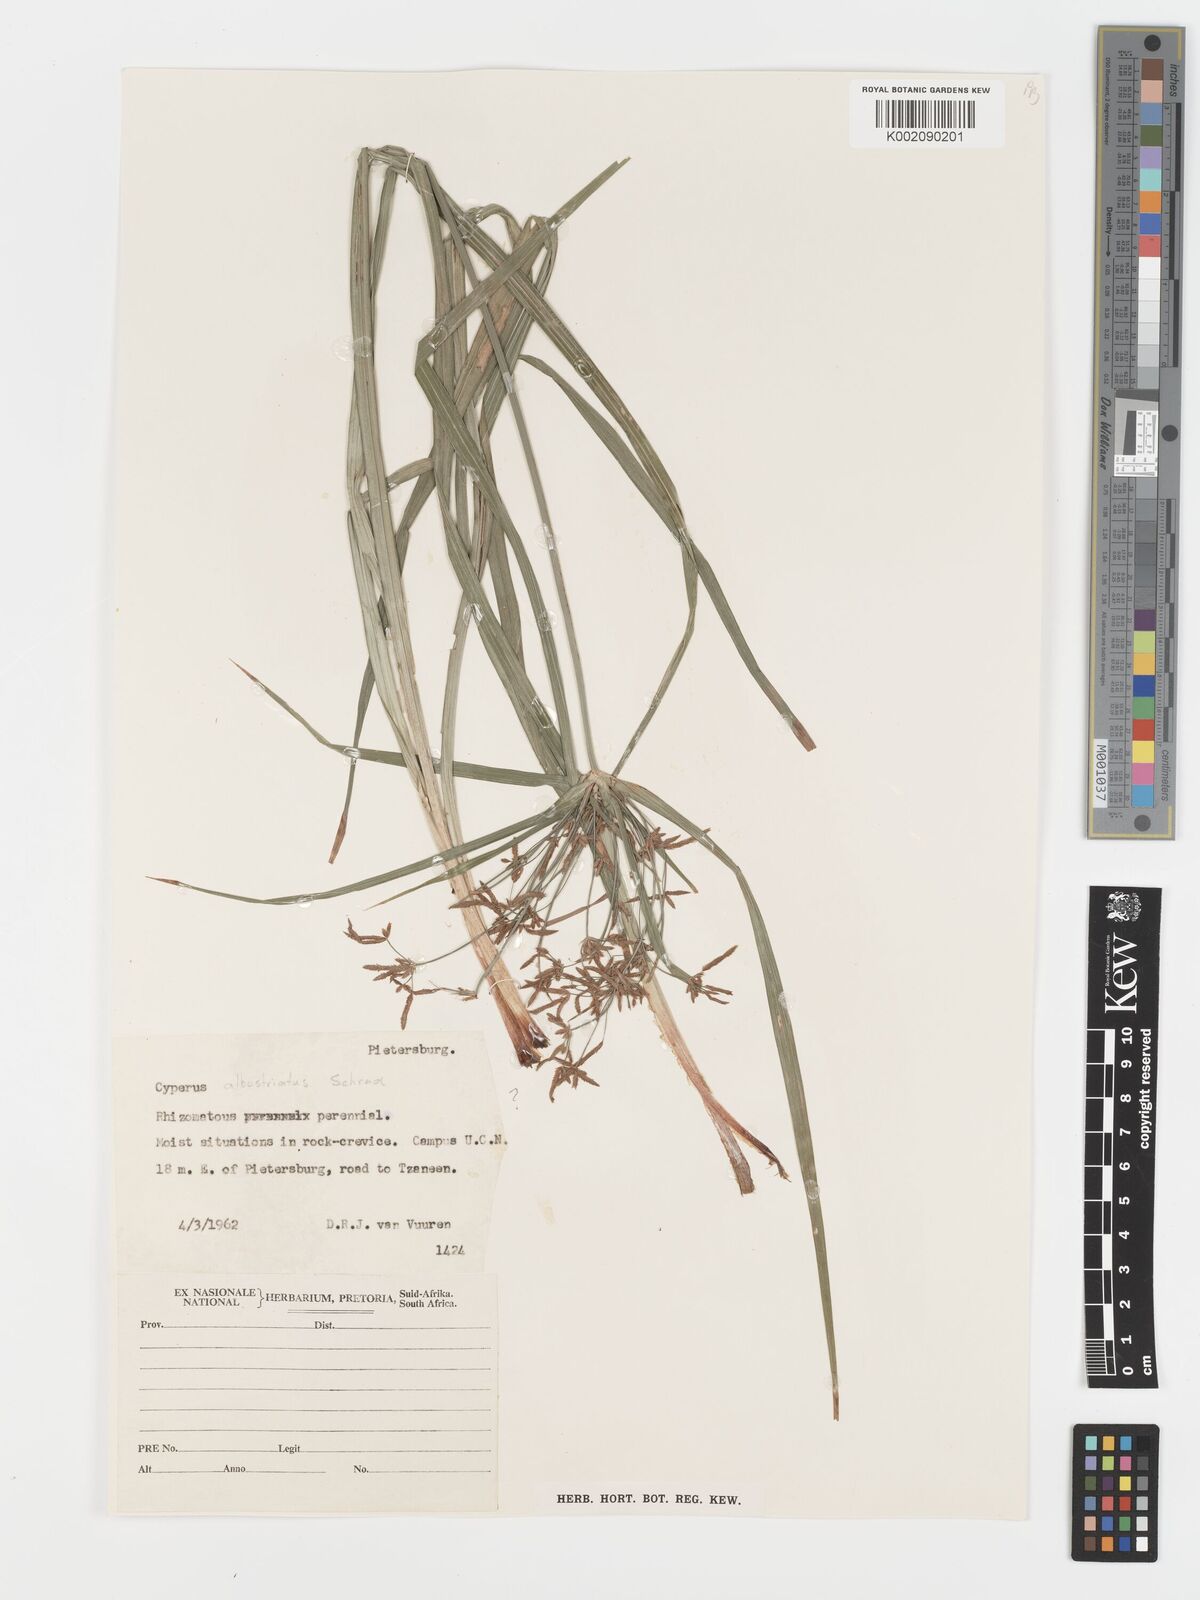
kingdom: Plantae
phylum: Tracheophyta
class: Liliopsida
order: Poales
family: Cyperaceae
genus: Cyperus
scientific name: Cyperus albostriatus
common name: Dwarf umbrella-grass
